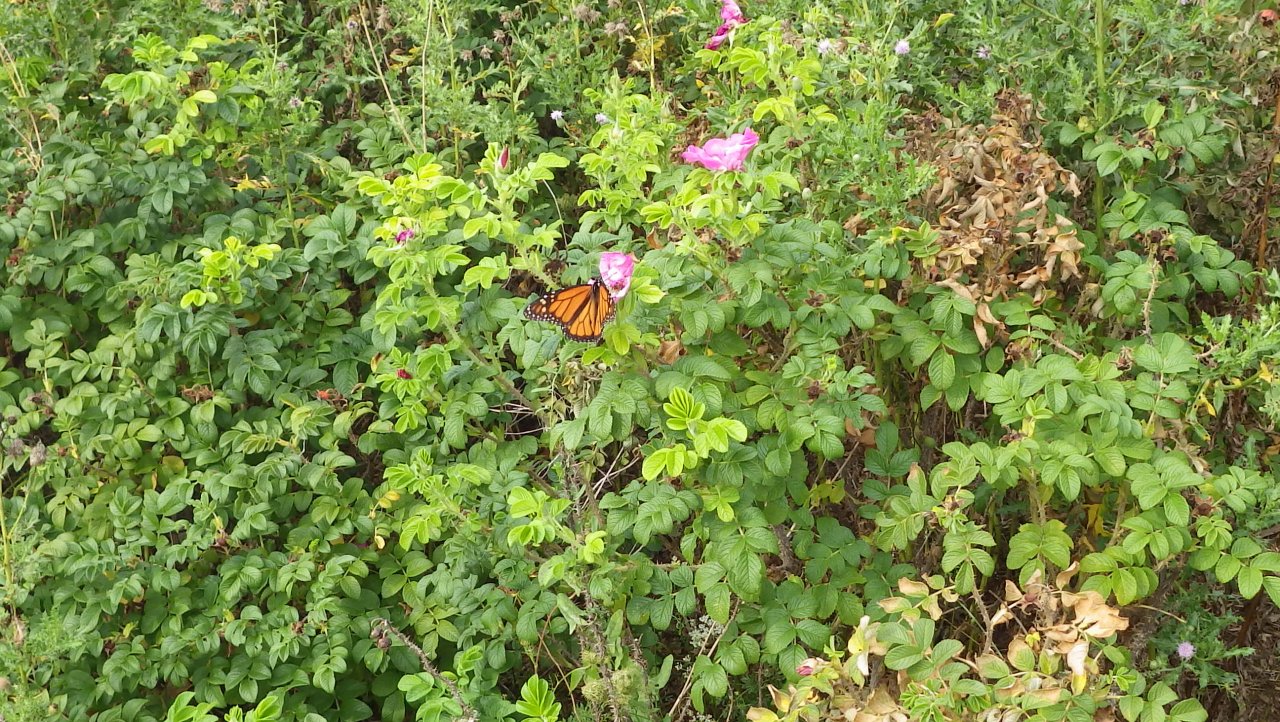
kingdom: Animalia
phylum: Arthropoda
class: Insecta
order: Lepidoptera
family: Nymphalidae
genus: Danaus
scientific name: Danaus plexippus
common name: Monarch
